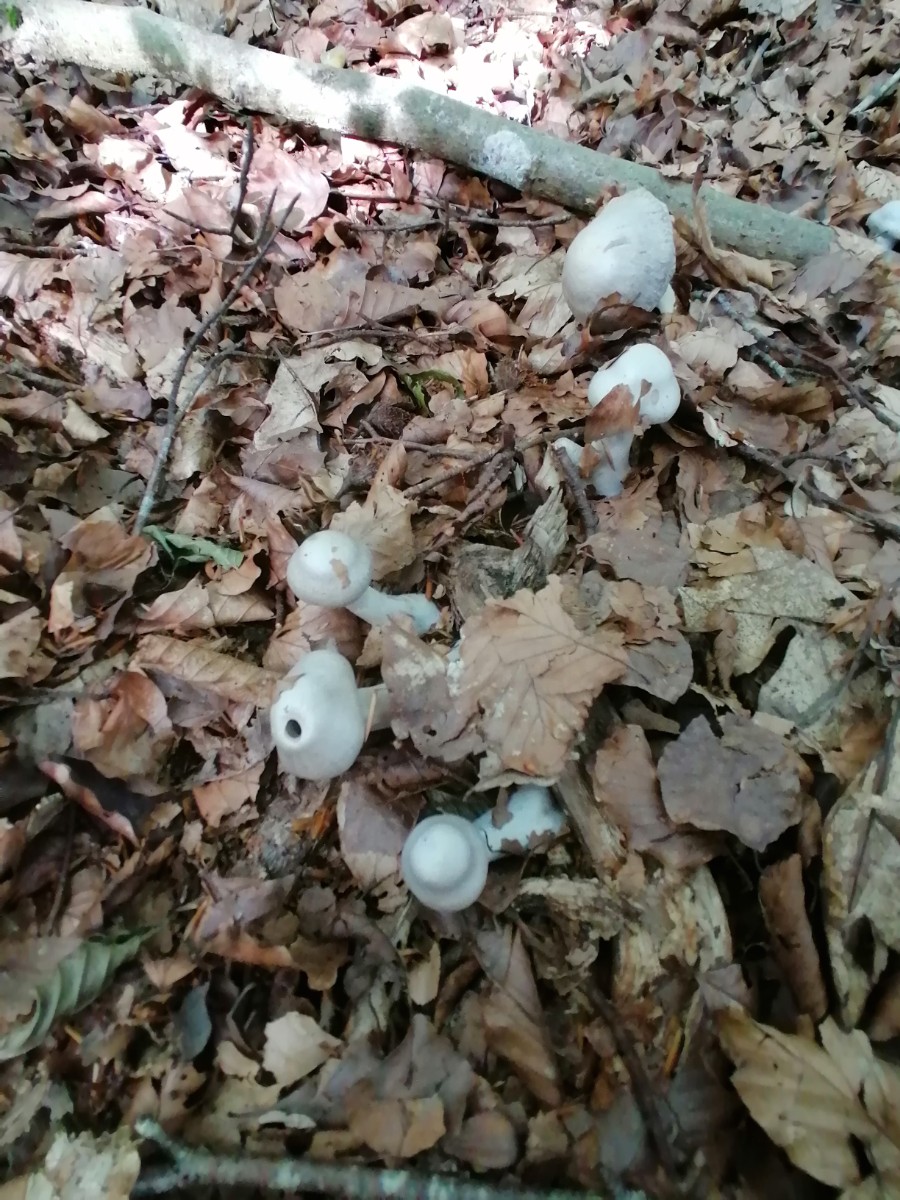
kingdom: Fungi
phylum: Basidiomycota
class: Agaricomycetes
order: Agaricales
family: Cortinariaceae
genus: Cortinarius
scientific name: Cortinarius alboviolaceus
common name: lysviolet slørhat
